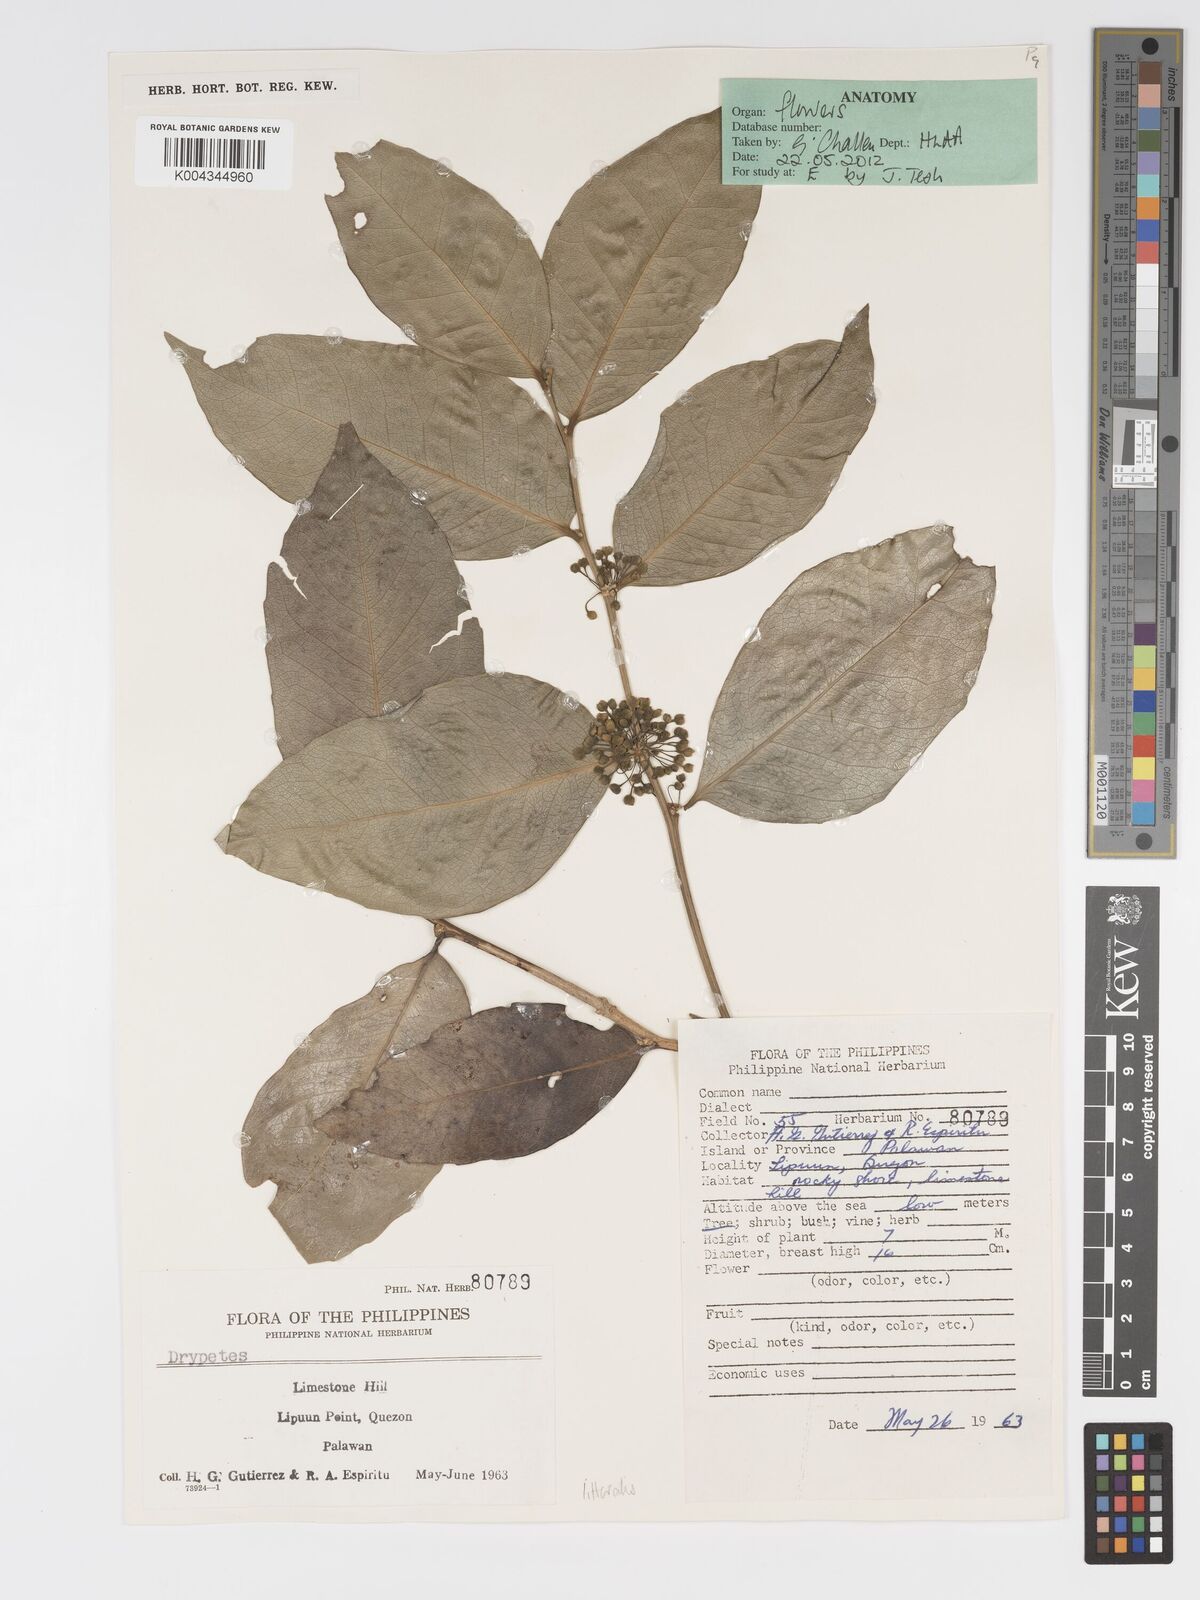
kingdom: Plantae
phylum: Tracheophyta
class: Magnoliopsida
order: Malpighiales
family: Putranjivaceae
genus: Drypetes
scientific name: Drypetes littoralis
